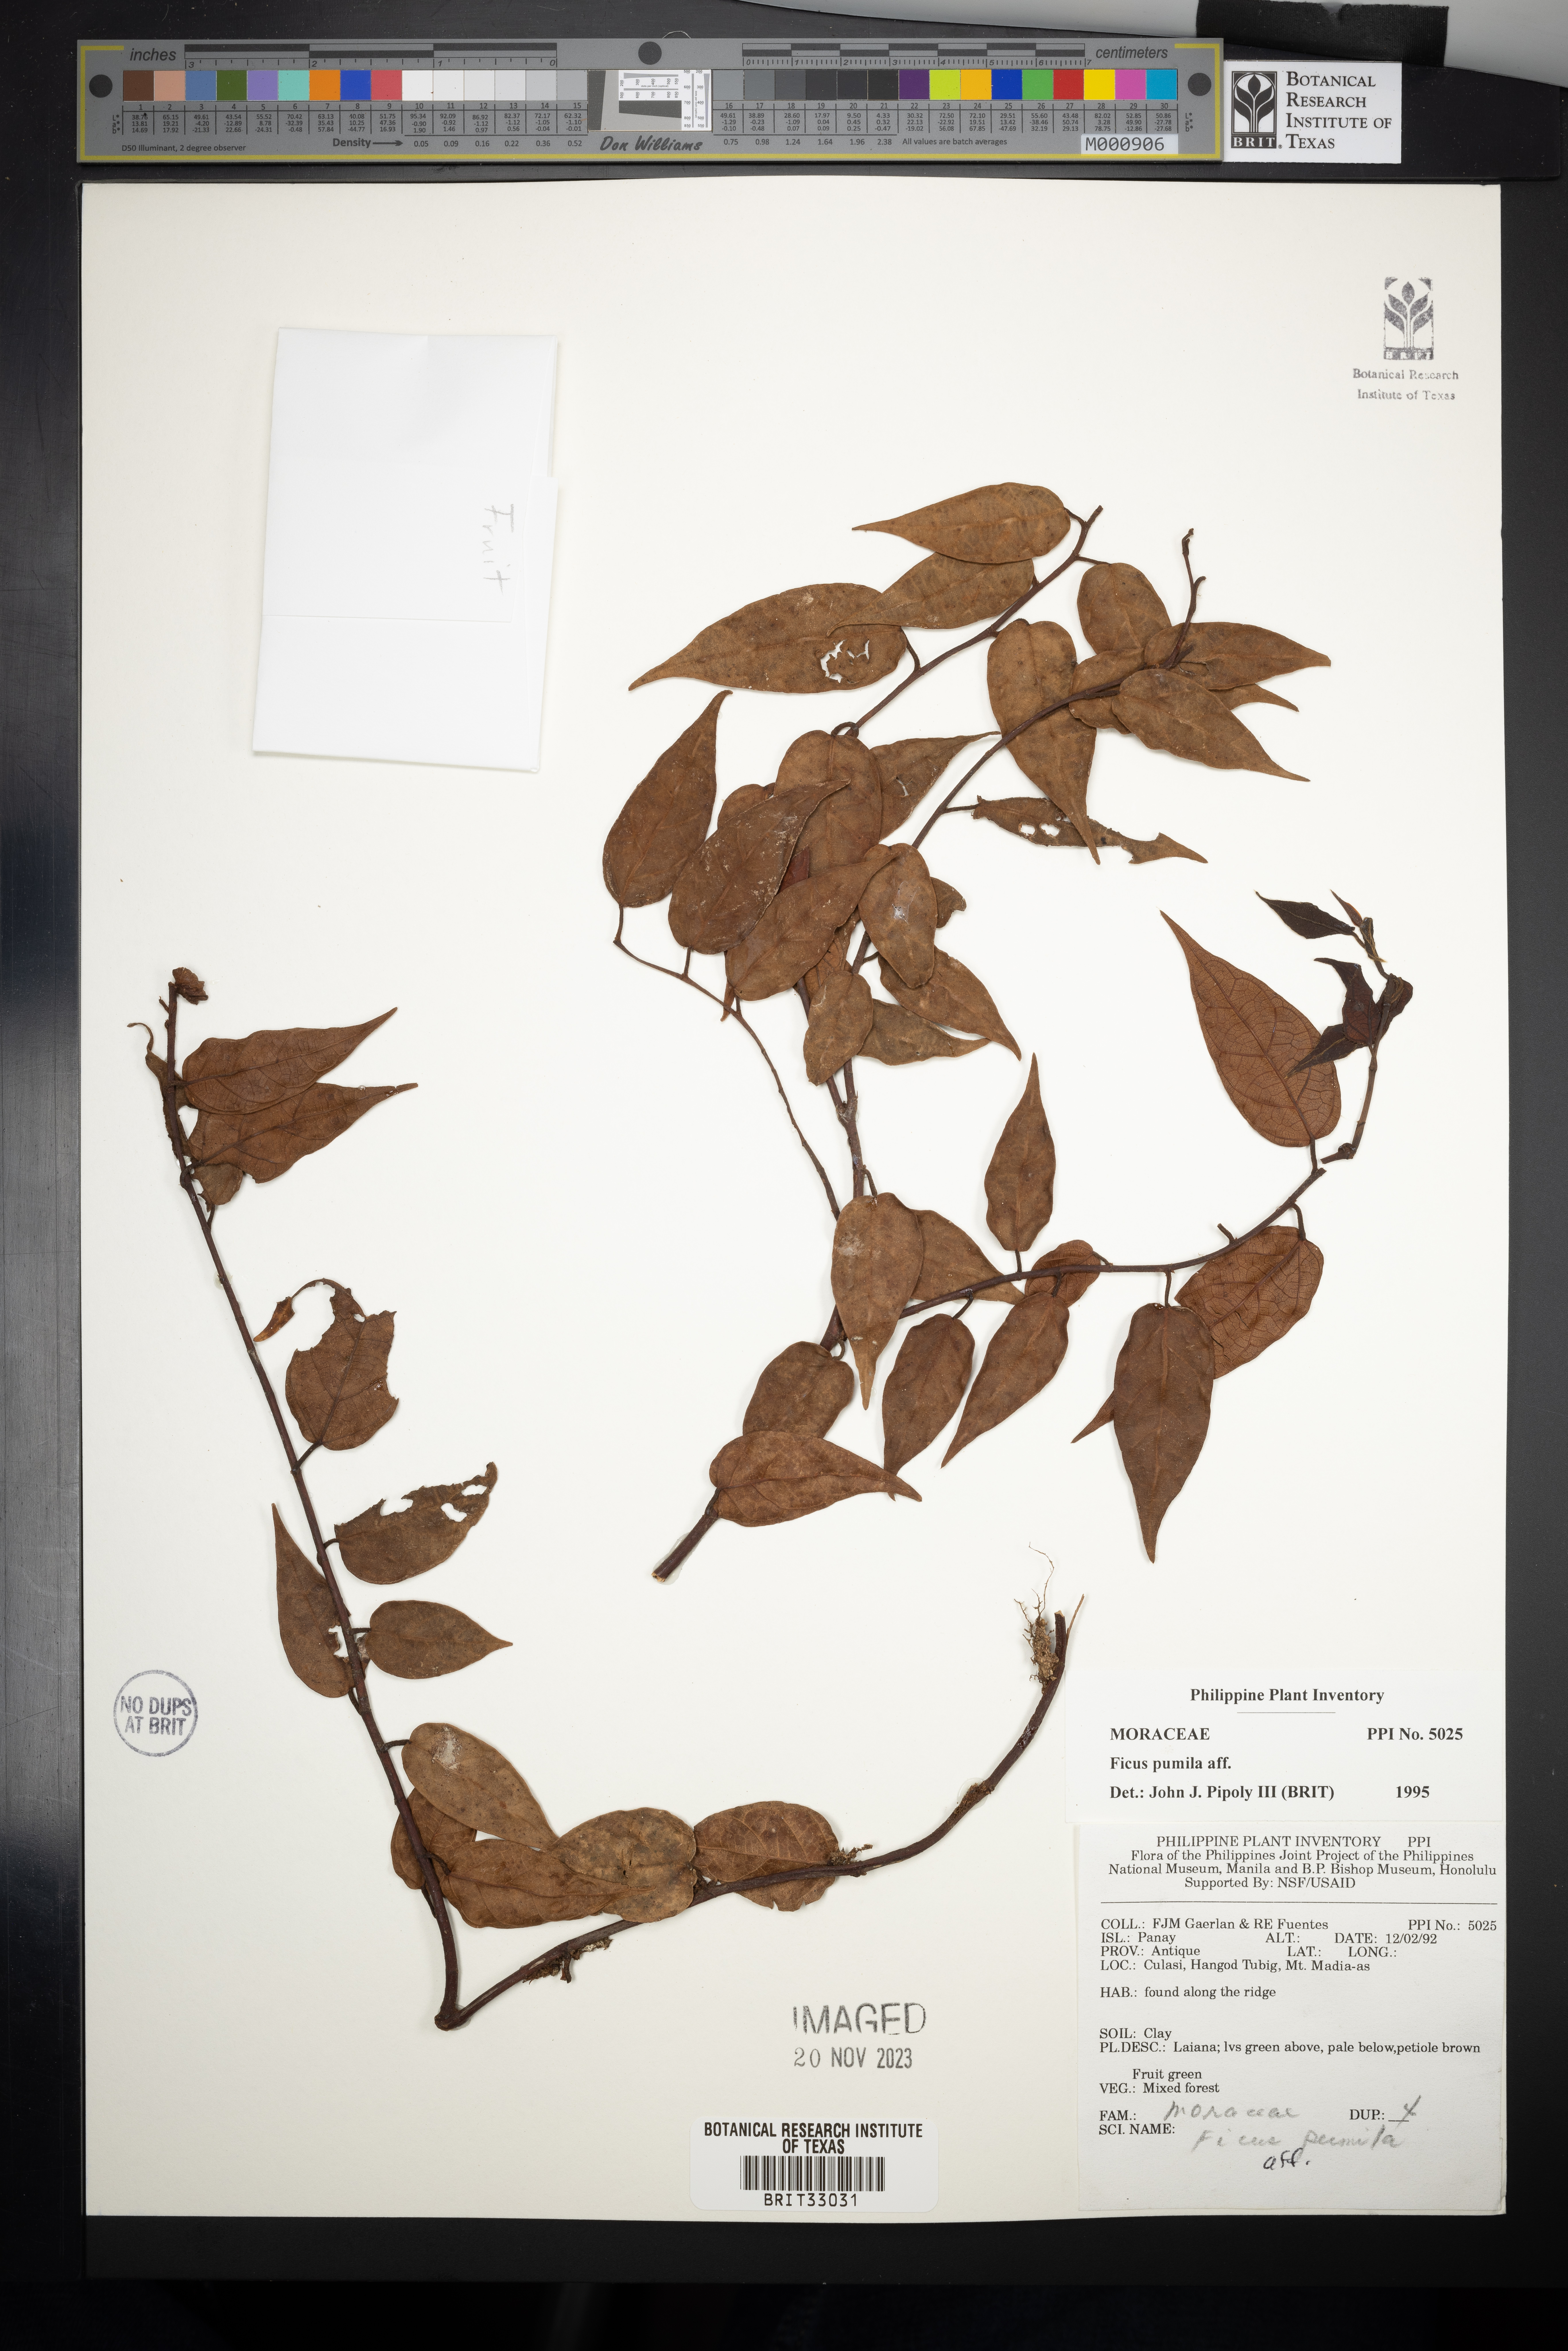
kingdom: Plantae
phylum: Tracheophyta
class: Magnoliopsida
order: Rosales
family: Moraceae
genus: Ficus
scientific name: Ficus pumila
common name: Climbingfig
